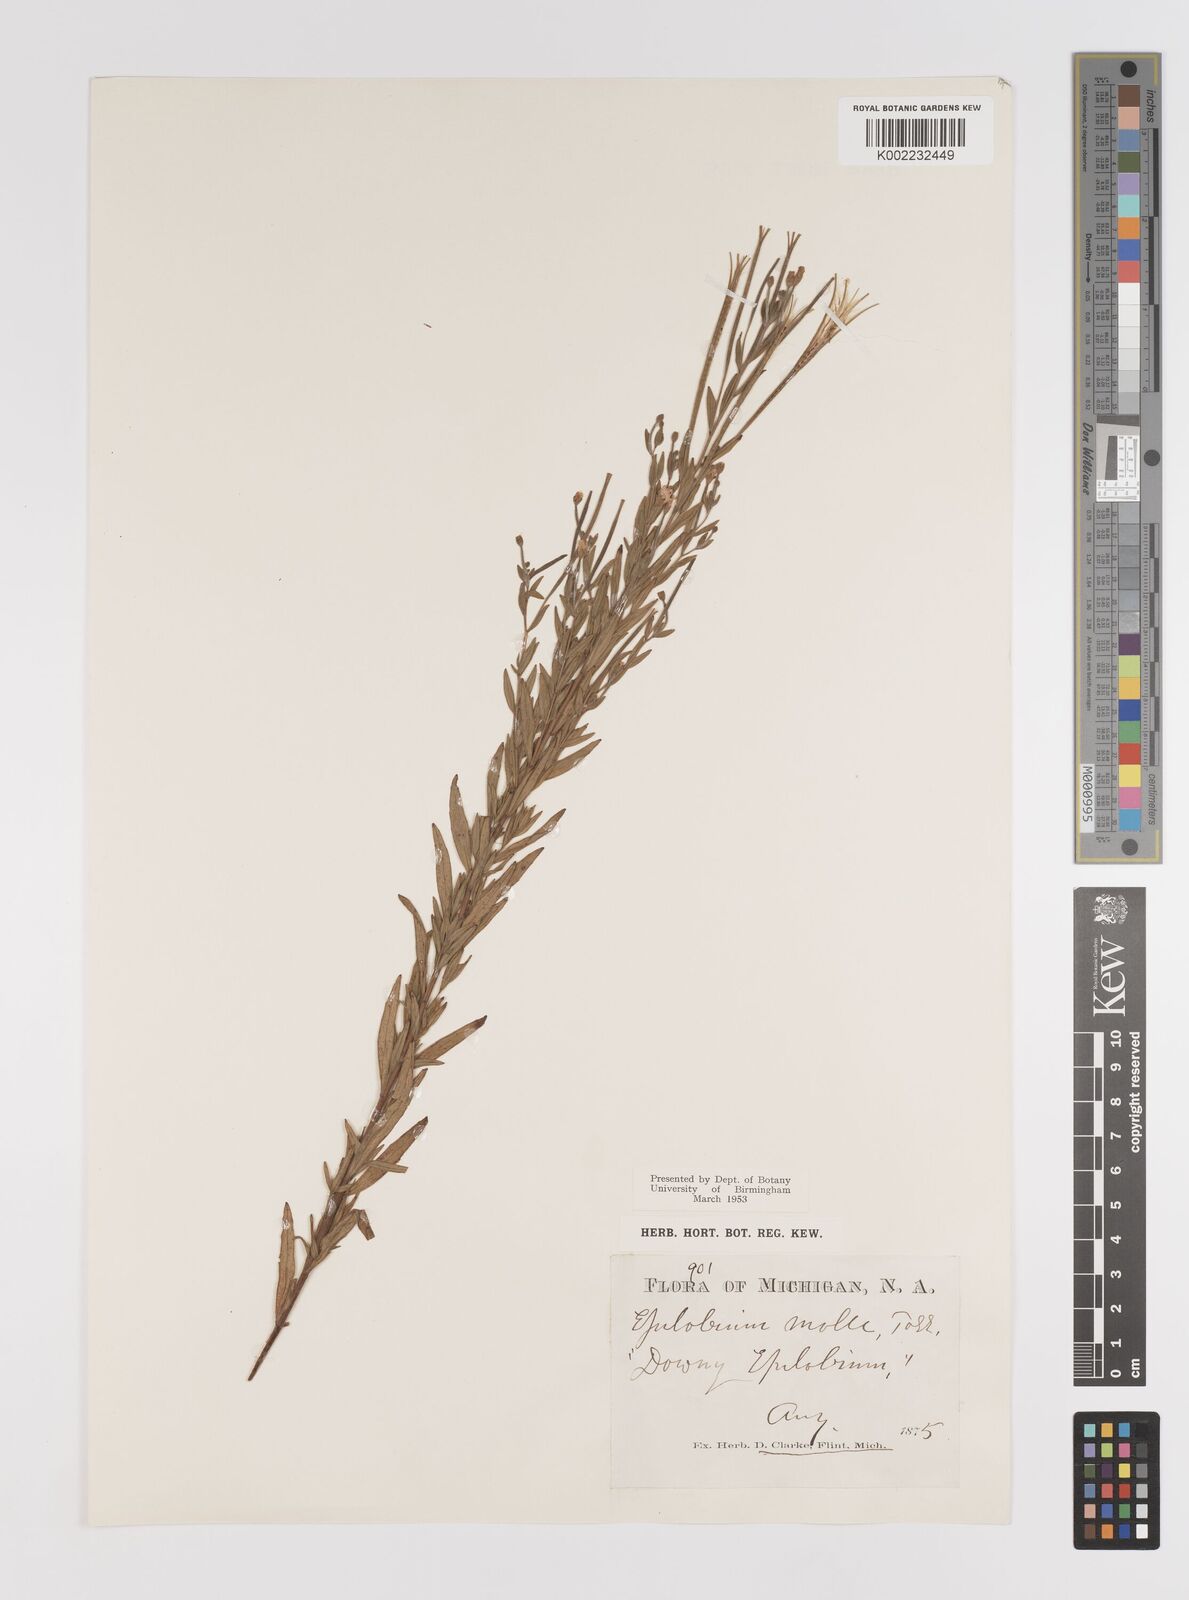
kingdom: Plantae
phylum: Tracheophyta
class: Magnoliopsida
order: Myrtales
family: Onagraceae
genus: Epilobium
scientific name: Epilobium densum
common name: Downy willowherb
